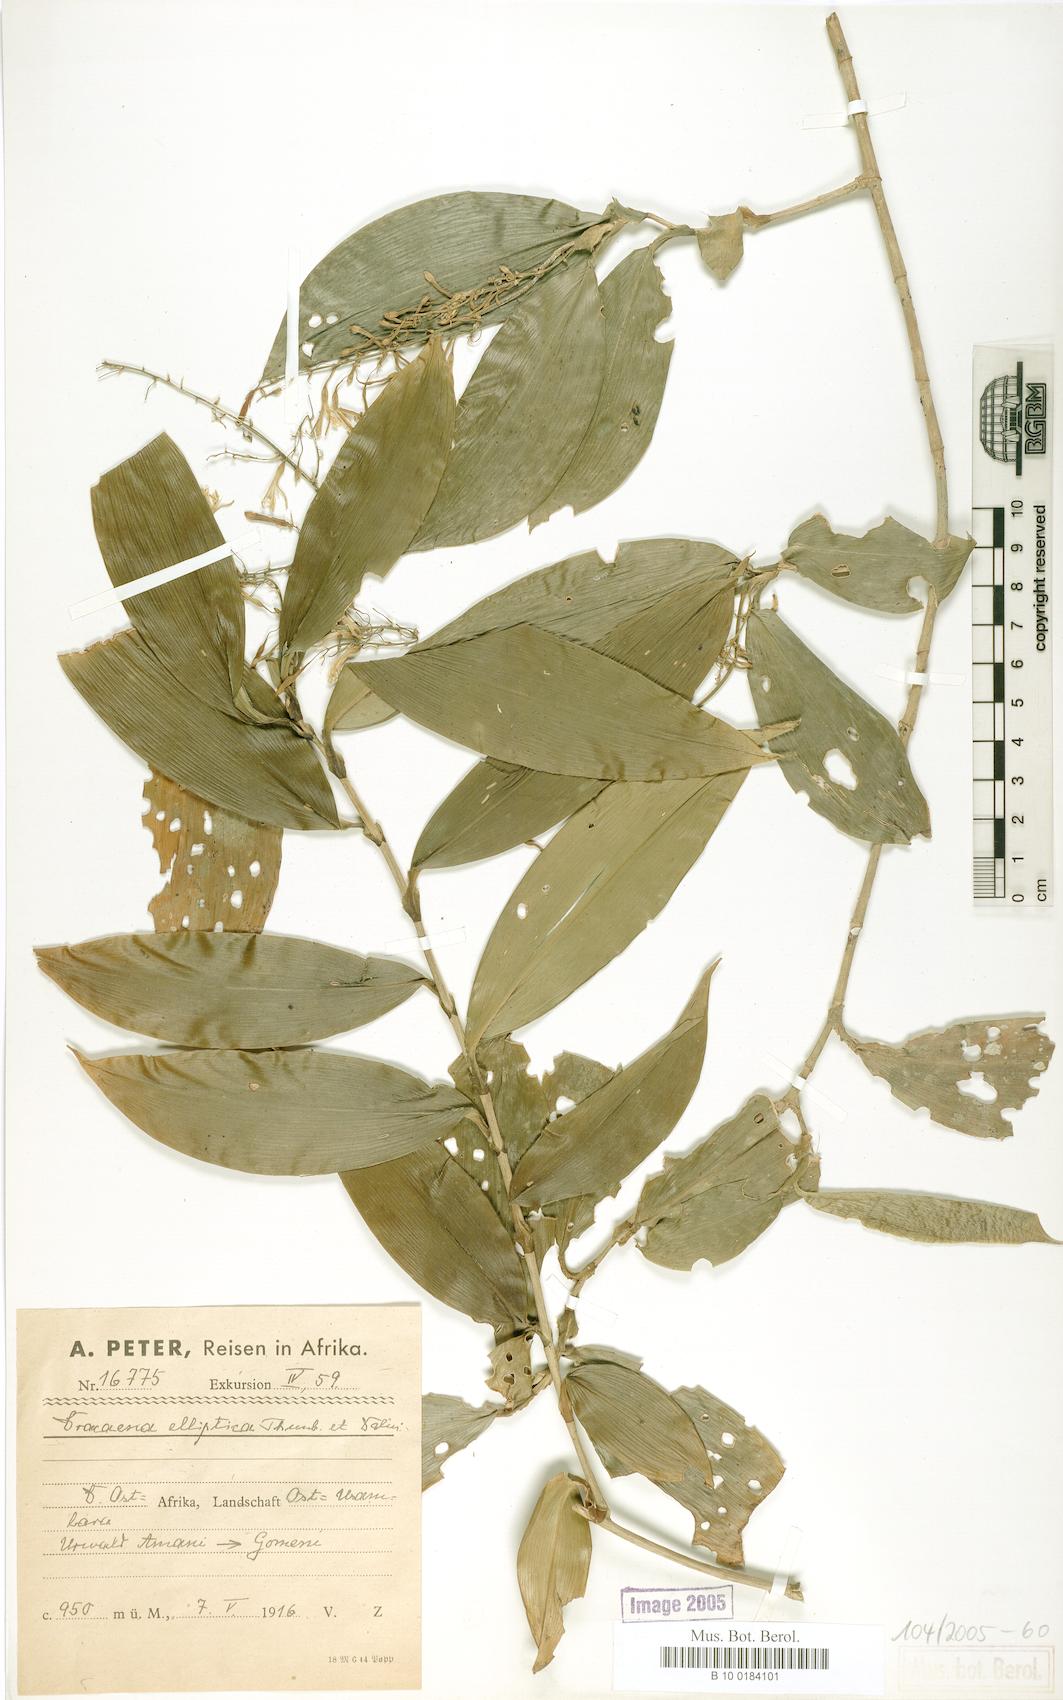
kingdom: Plantae
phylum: Tracheophyta
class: Liliopsida
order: Asparagales
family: Asparagaceae
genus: Dracaena
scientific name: Dracaena elliptica
